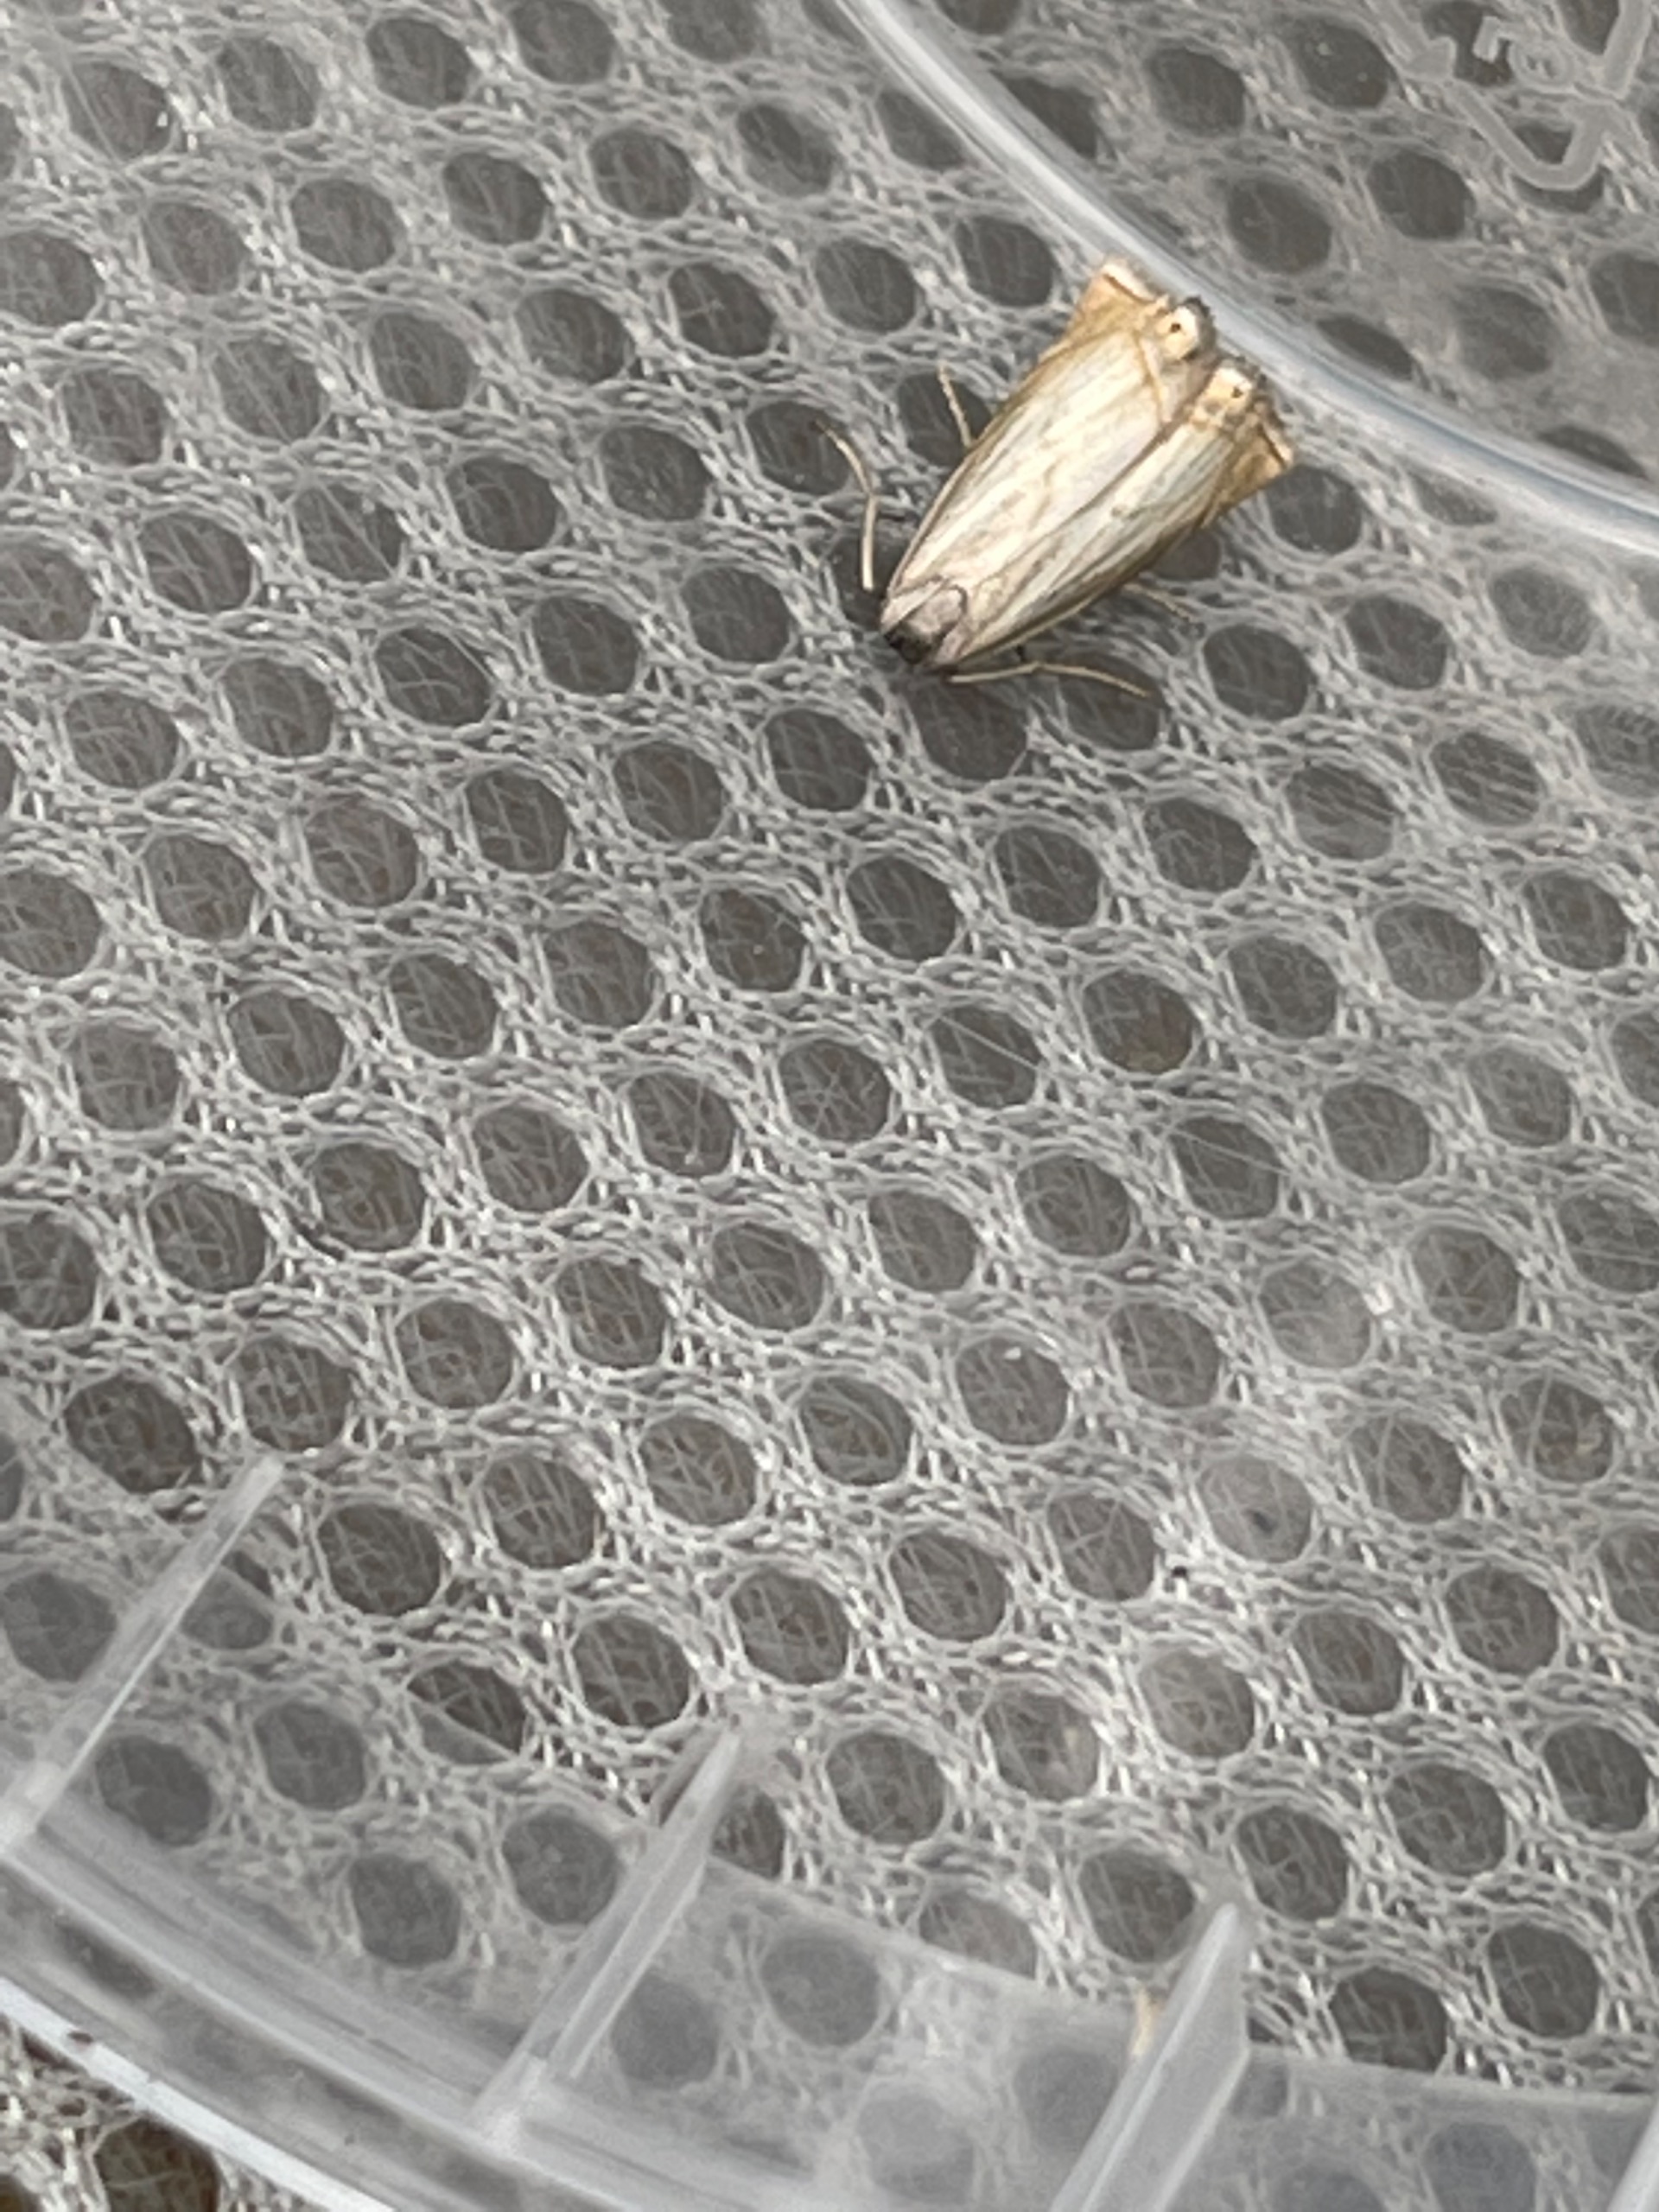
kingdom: Animalia
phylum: Arthropoda
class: Insecta
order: Lepidoptera
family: Crambidae
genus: Chrysoteuchia
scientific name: Chrysoteuchia culmella
